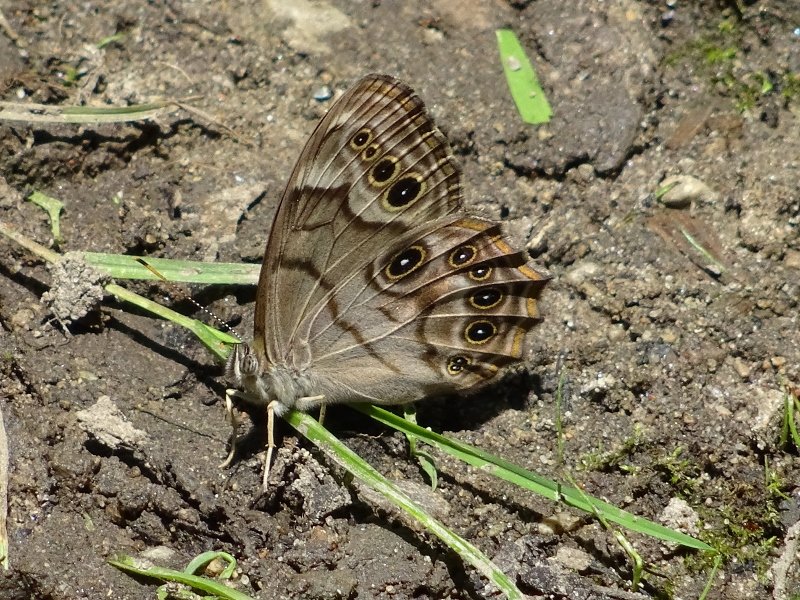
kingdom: Animalia
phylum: Arthropoda
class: Insecta
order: Lepidoptera
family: Nymphalidae
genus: Lethe
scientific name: Lethe anthedon
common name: Northern Pearly-Eye
